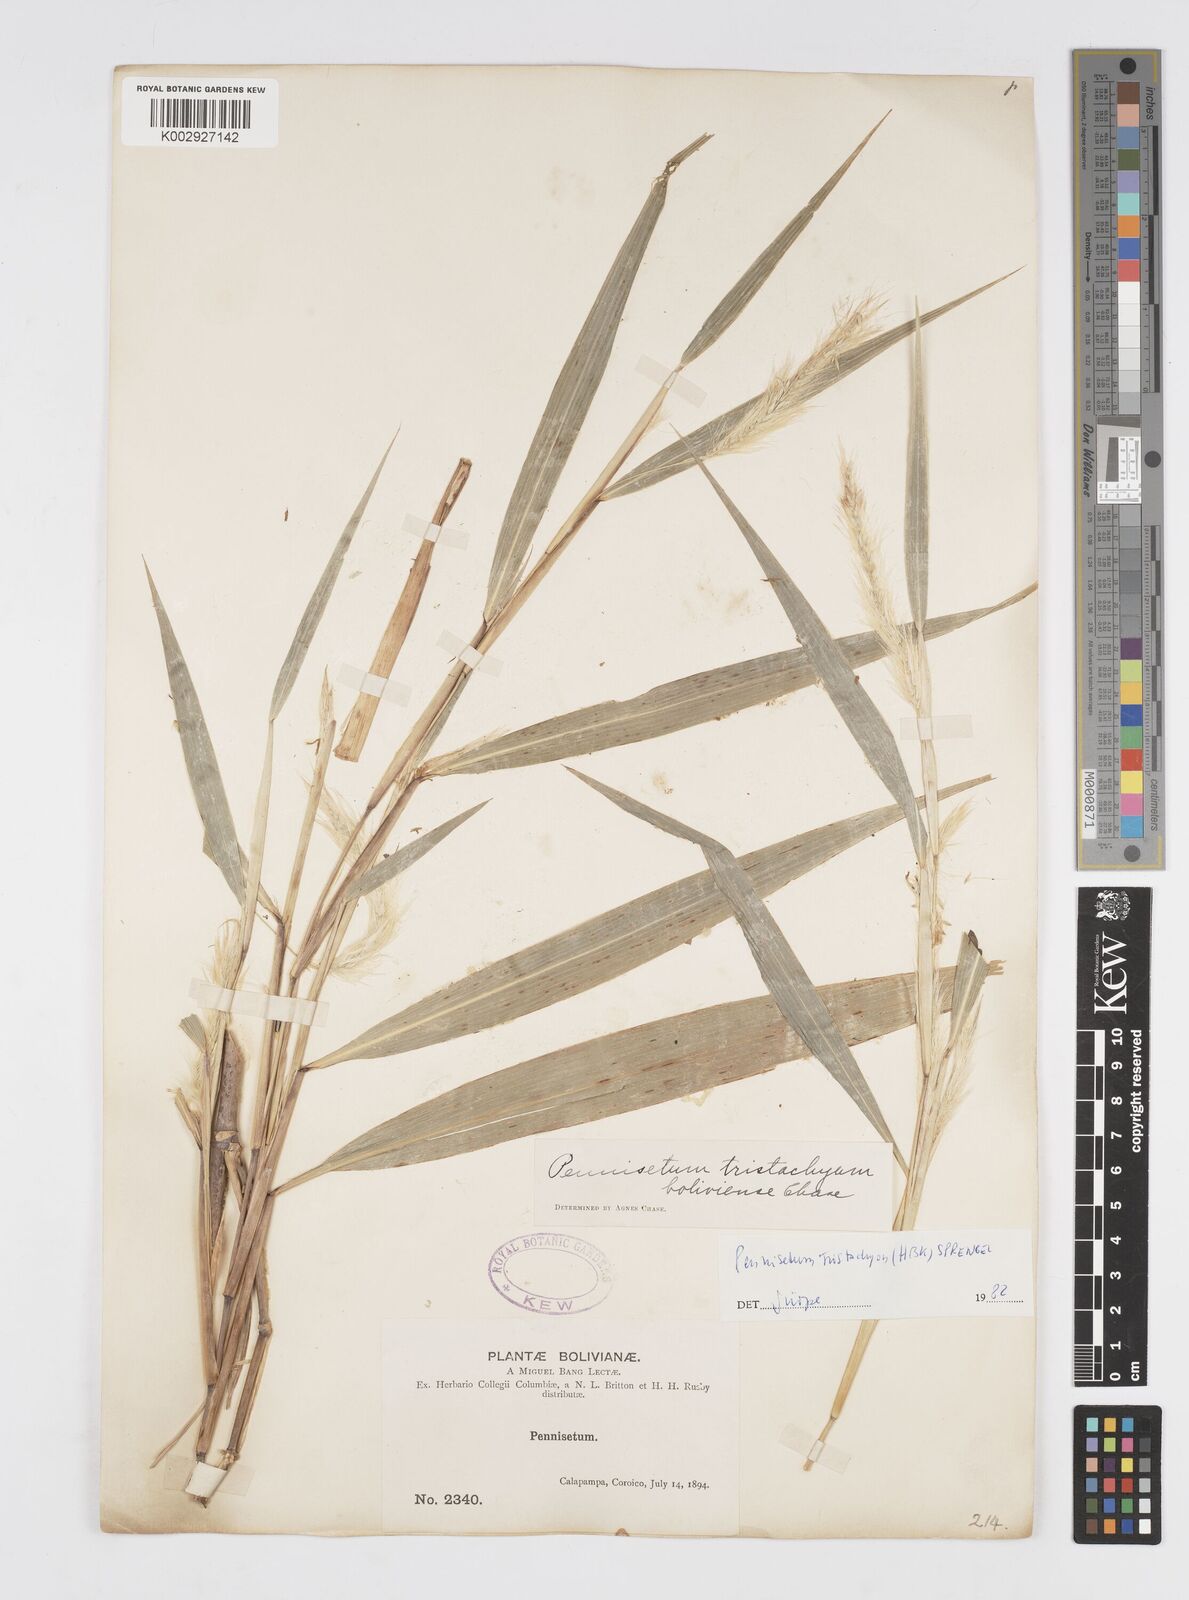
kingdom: Plantae
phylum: Tracheophyta
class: Liliopsida
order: Poales
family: Poaceae
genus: Cenchrus
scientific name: Cenchrus tristachyus
